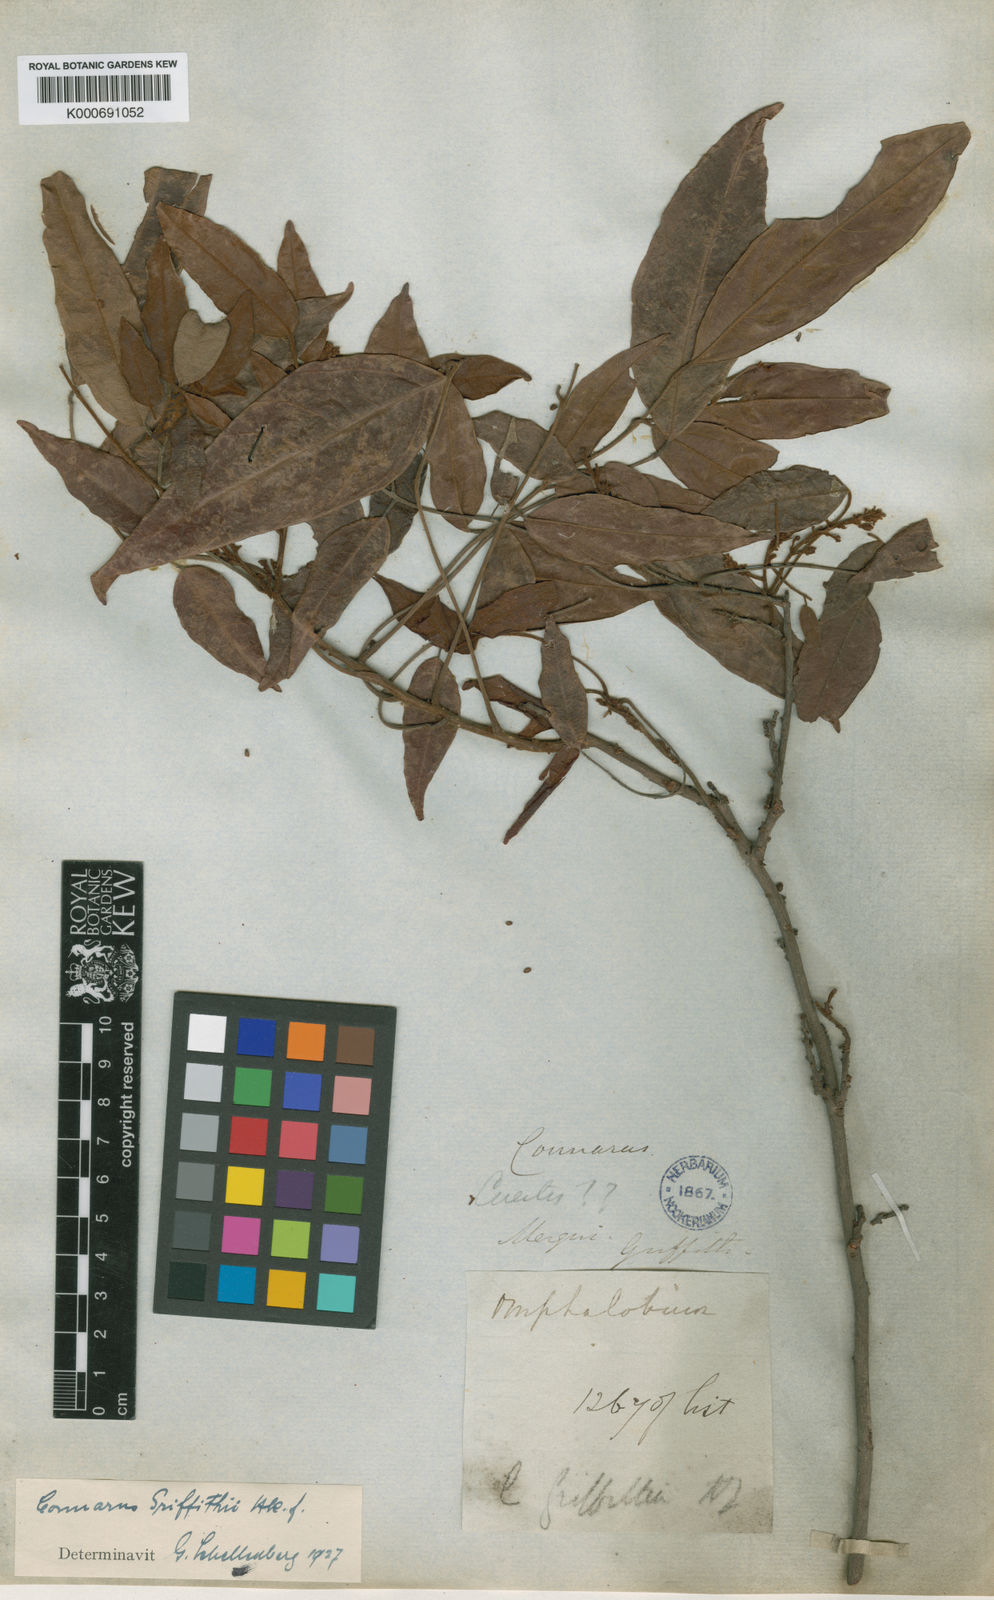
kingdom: Plantae
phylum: Tracheophyta
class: Magnoliopsida
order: Oxalidales
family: Connaraceae
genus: Connarus
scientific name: Connarus semidecandrus
